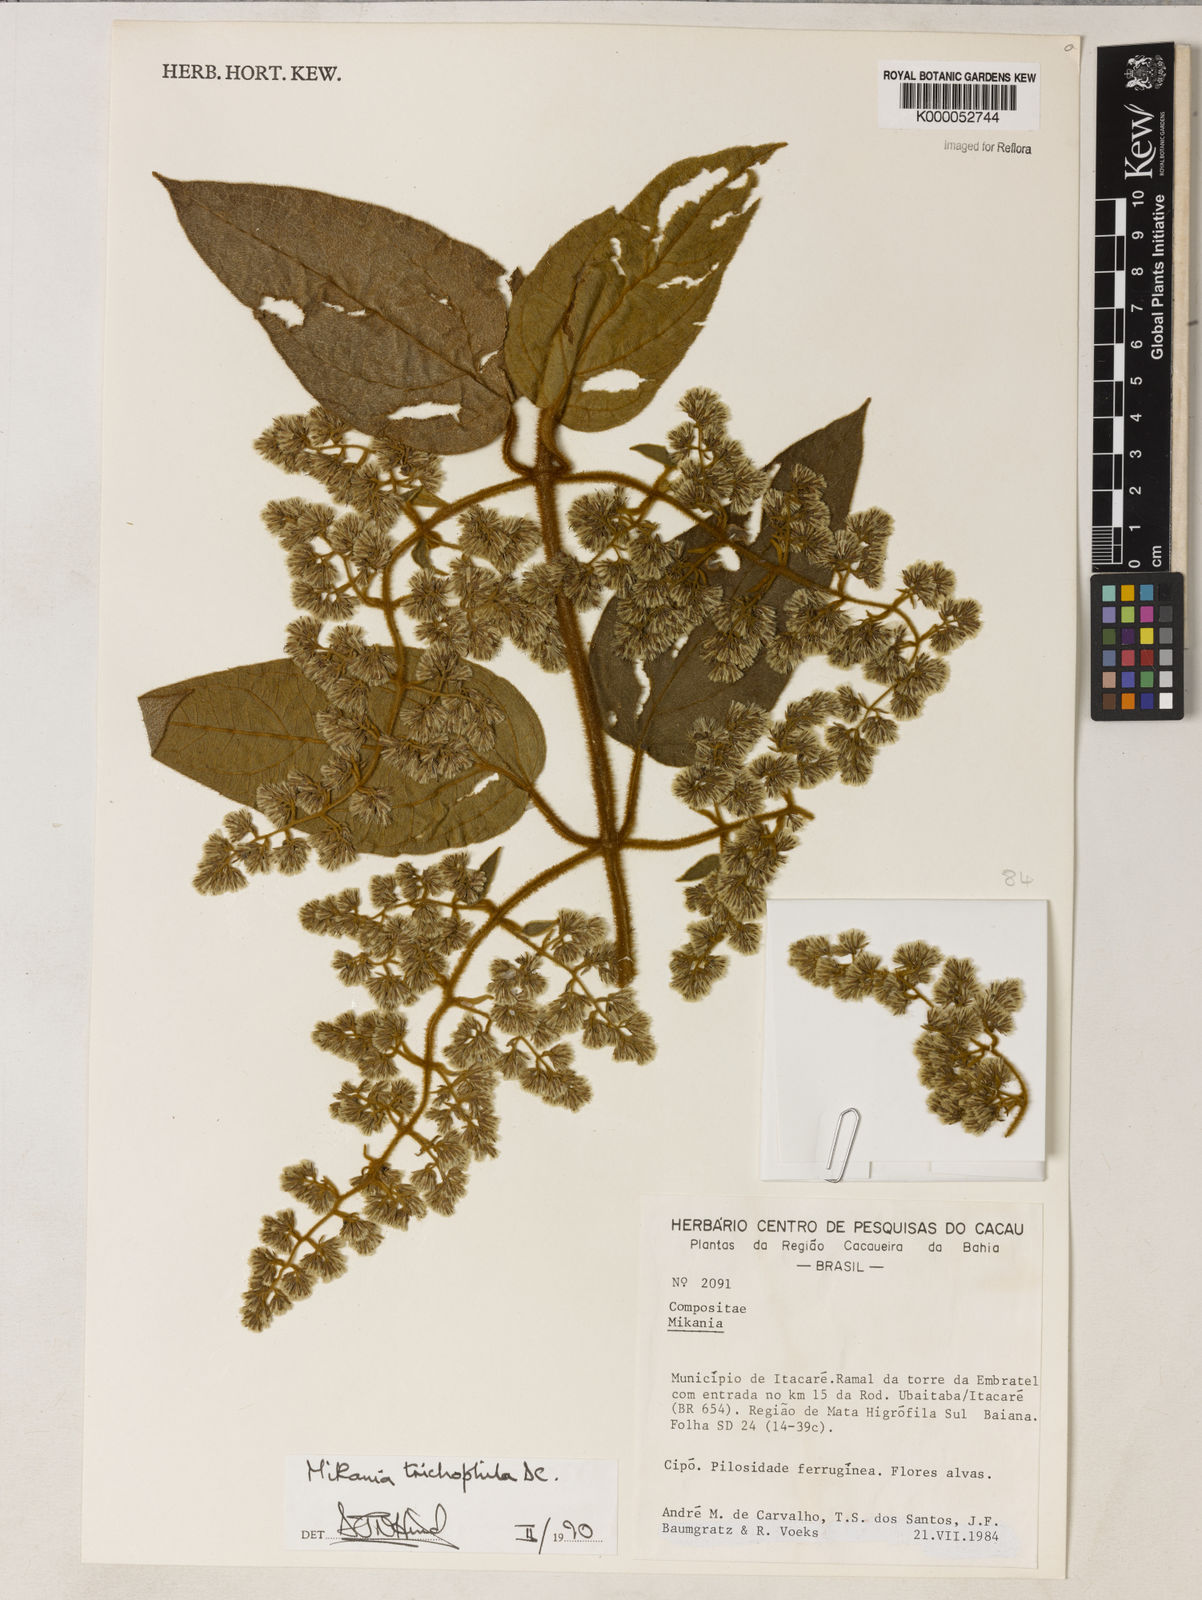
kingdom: Plantae
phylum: Tracheophyta
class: Magnoliopsida
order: Asterales
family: Asteraceae
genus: Mikania
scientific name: Mikania trichophila
